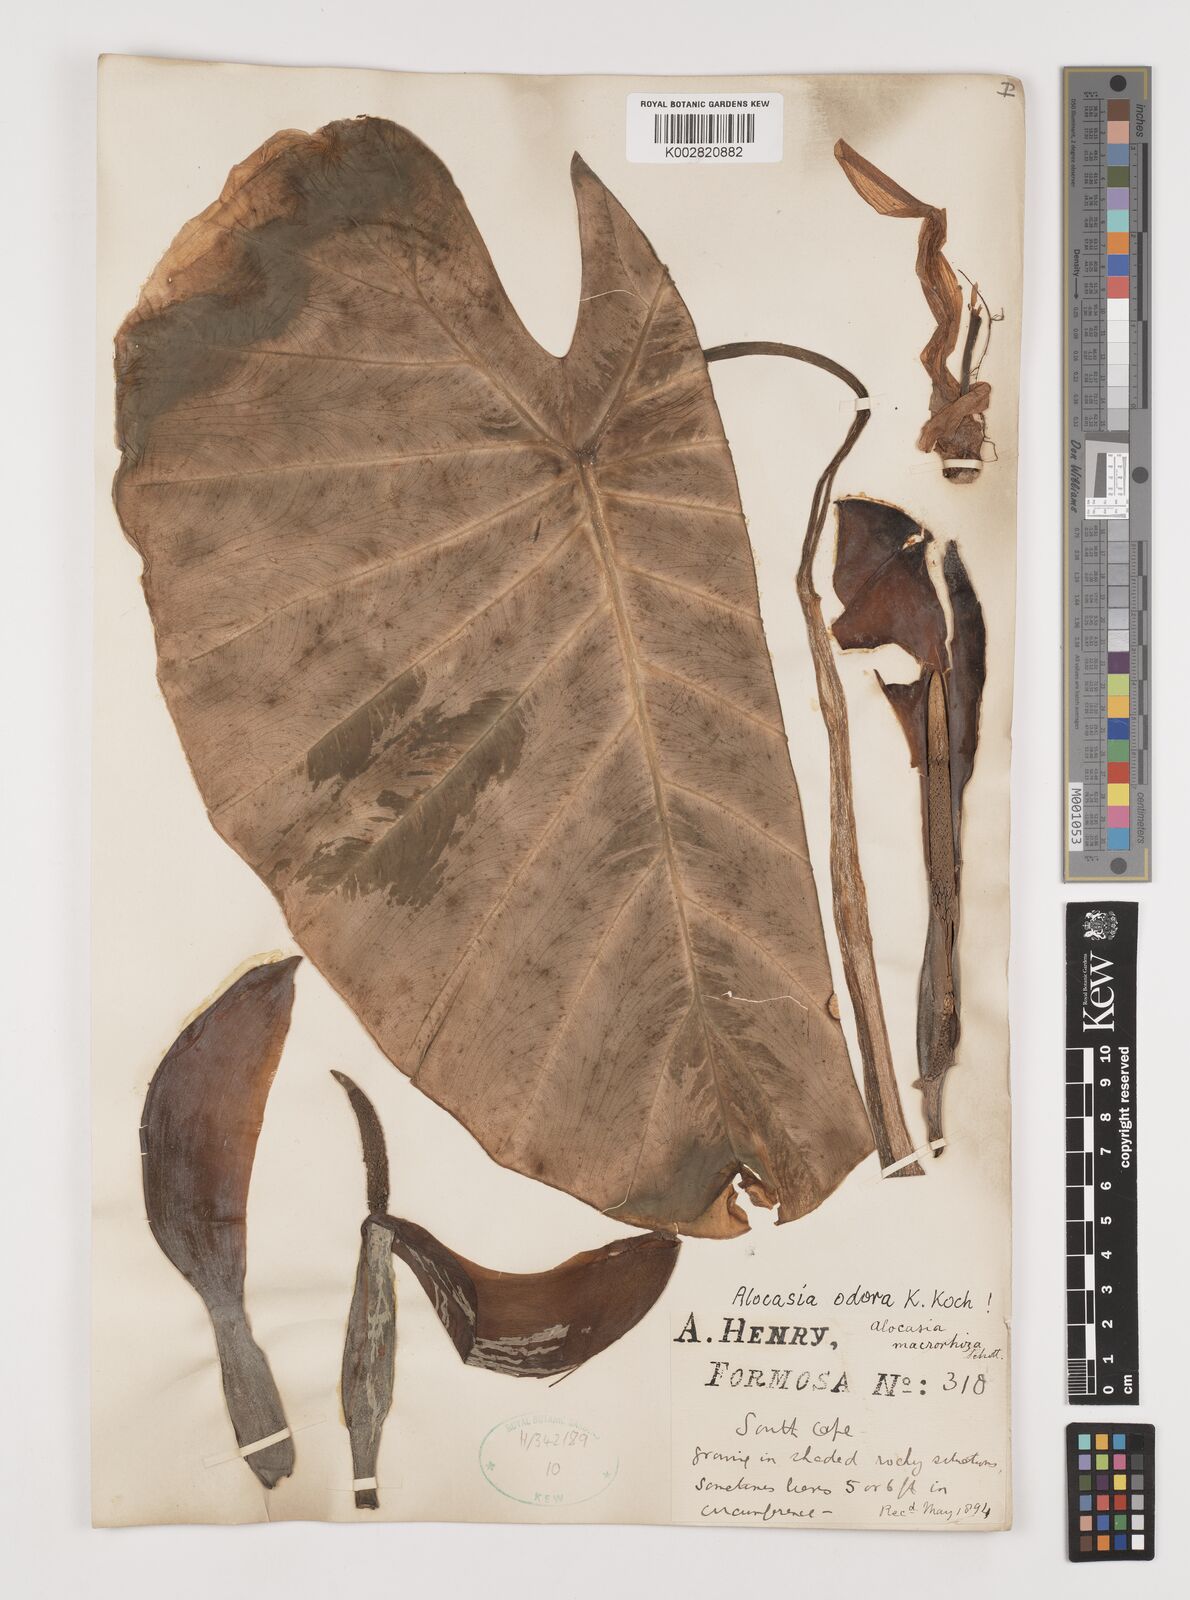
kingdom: Plantae
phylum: Tracheophyta
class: Liliopsida
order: Alismatales
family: Araceae
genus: Alocasia
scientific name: Alocasia odora
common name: Asian taro
